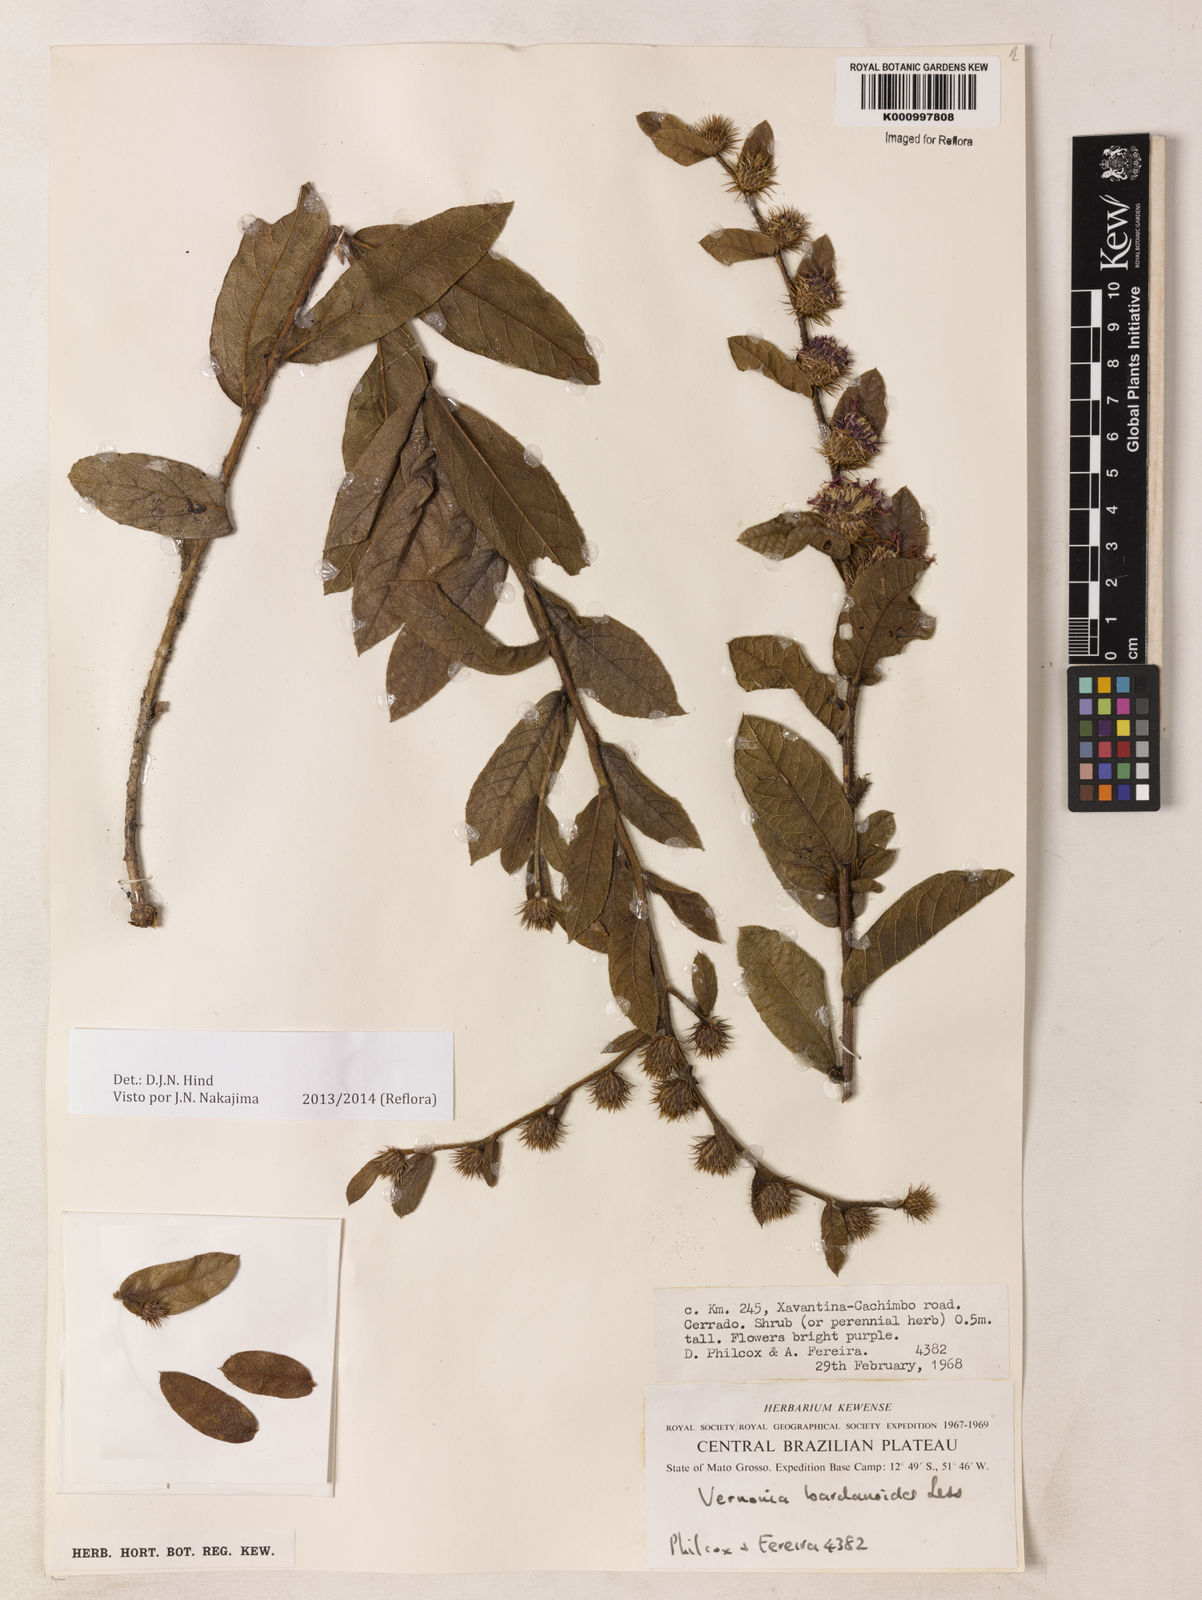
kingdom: Plantae
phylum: Tracheophyta
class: Magnoliopsida
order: Asterales
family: Asteraceae
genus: Lessingianthus
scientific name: Lessingianthus bardanioides
